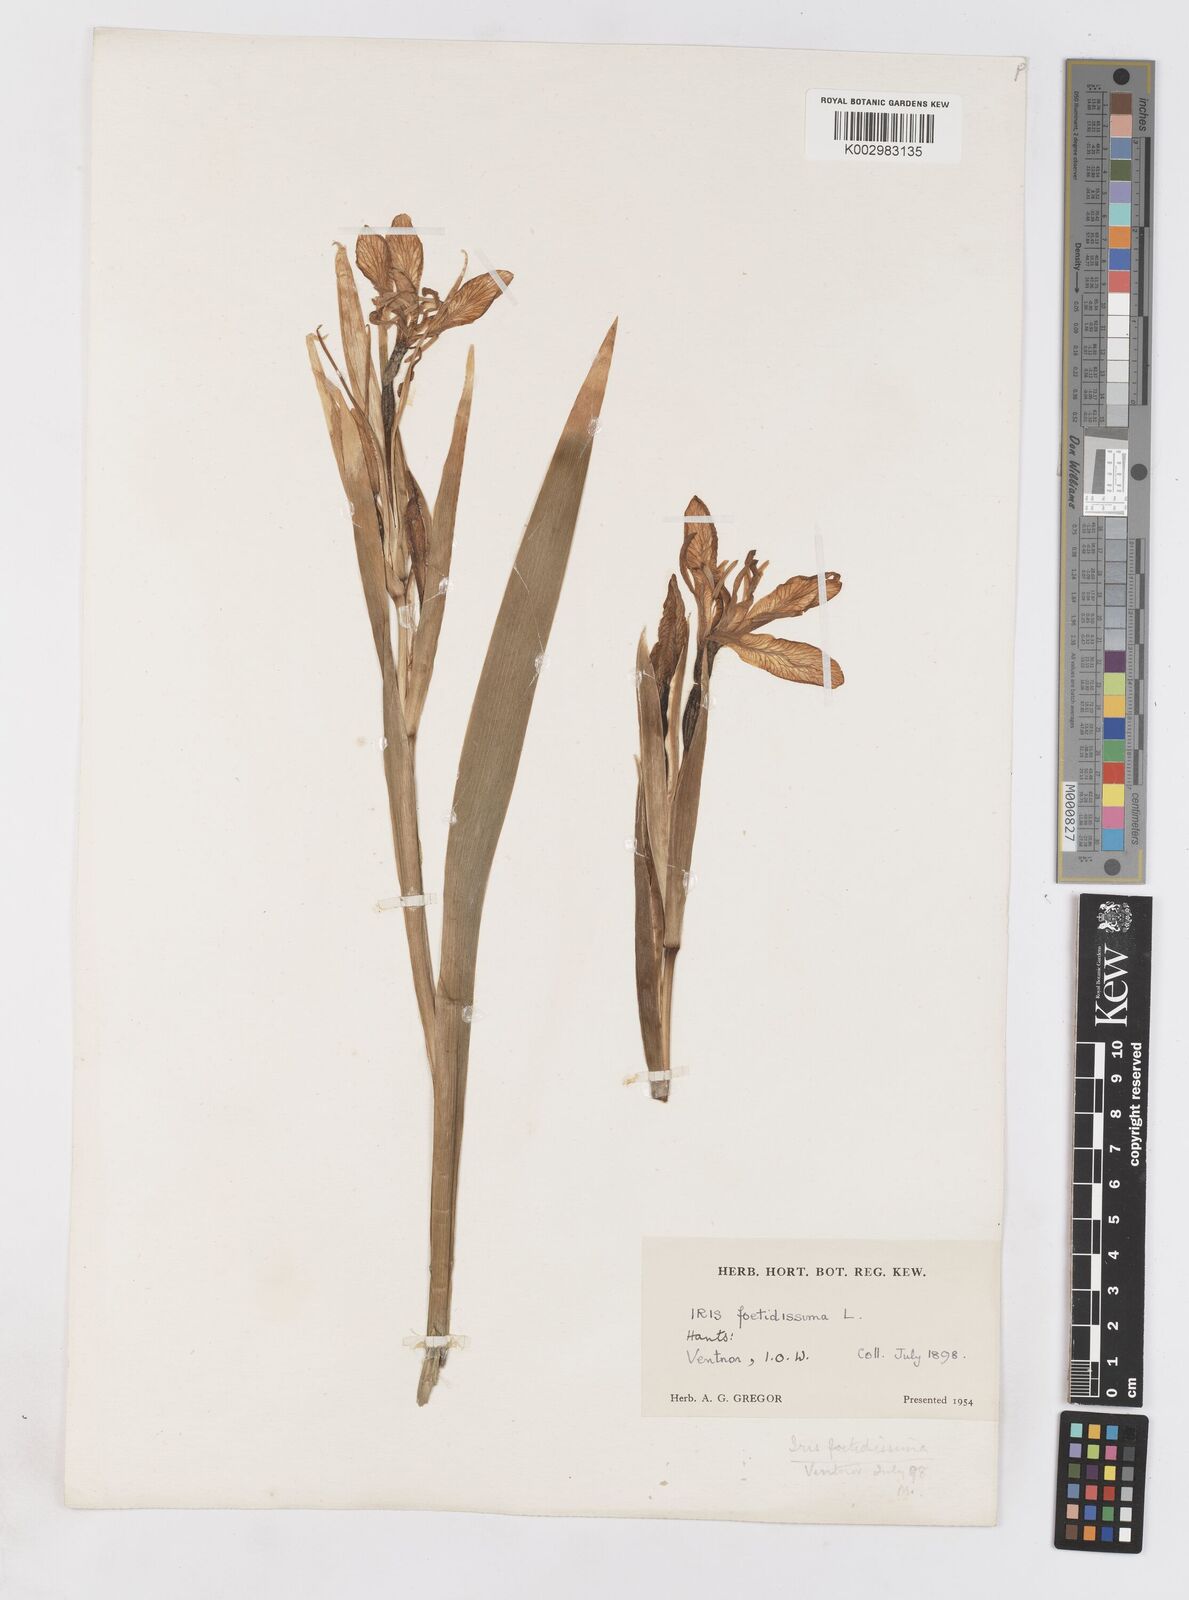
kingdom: Plantae
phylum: Tracheophyta
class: Liliopsida
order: Asparagales
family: Iridaceae
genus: Iris
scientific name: Iris foetidissima
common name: Stinking iris
